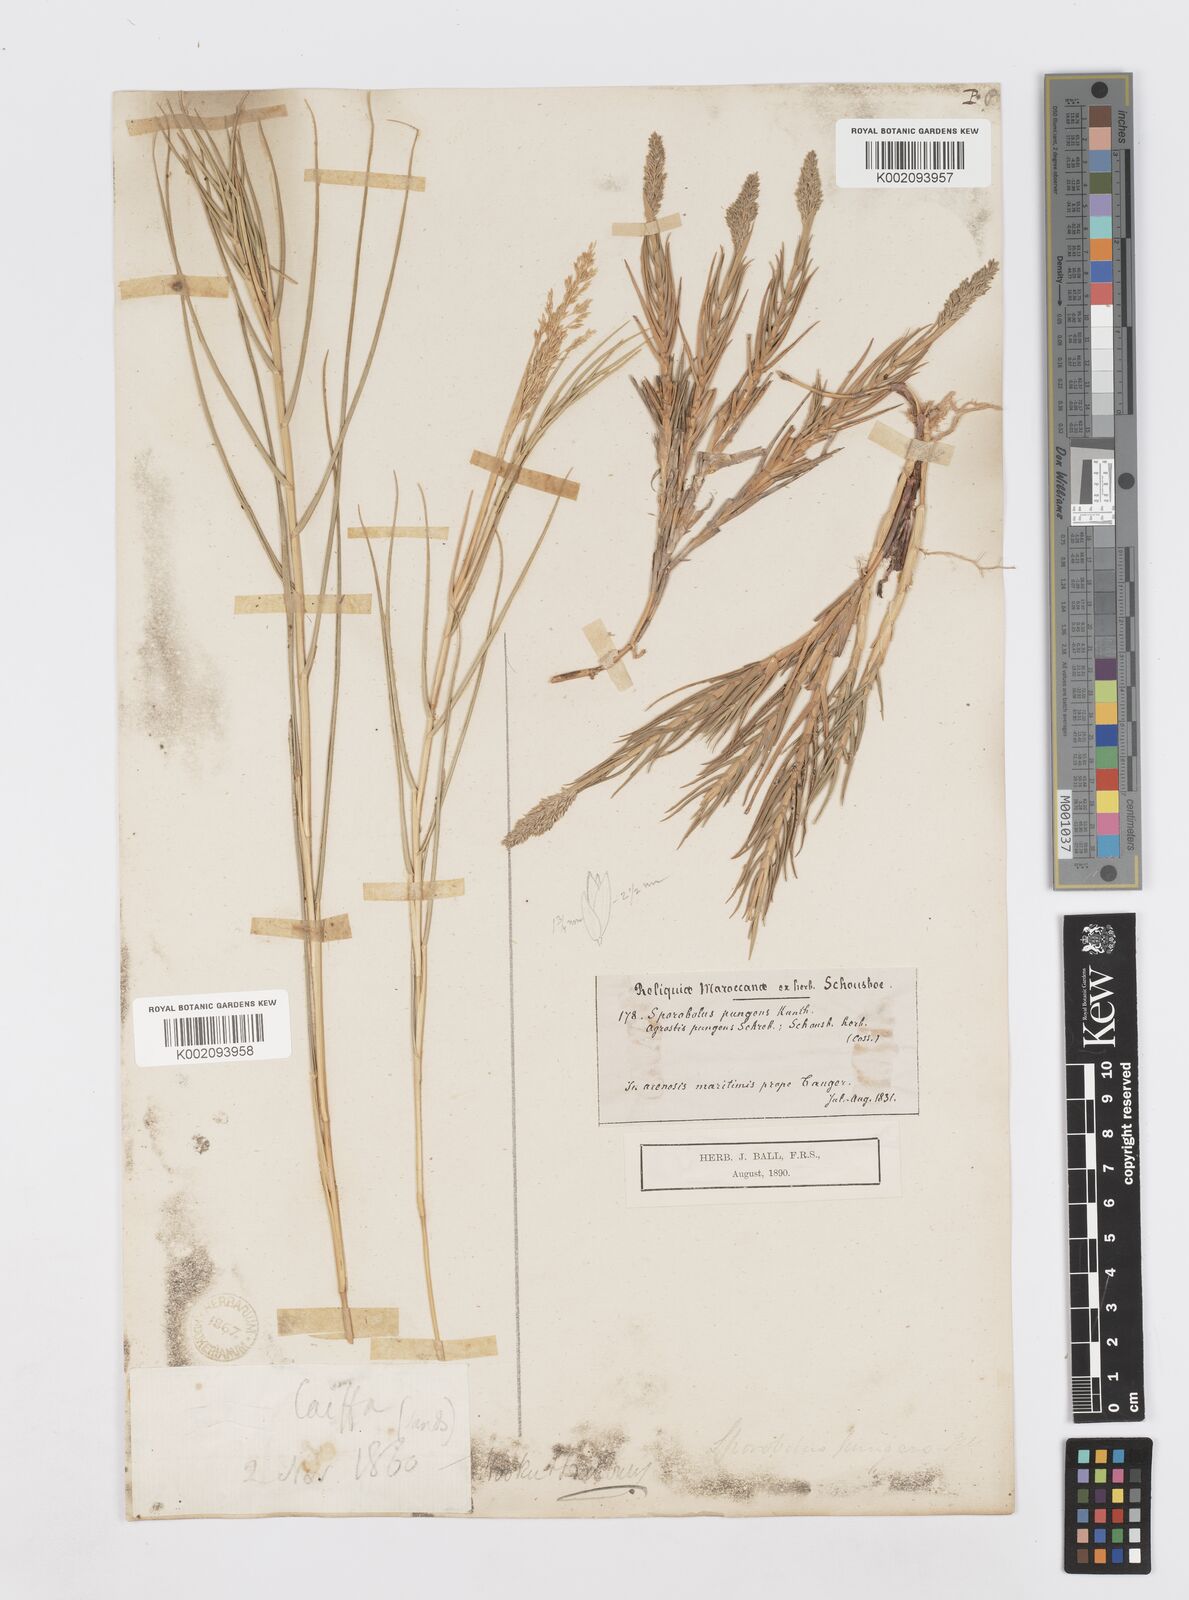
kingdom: Plantae
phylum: Tracheophyta
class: Liliopsida
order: Poales
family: Poaceae
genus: Sporobolus
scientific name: Sporobolus pungens
